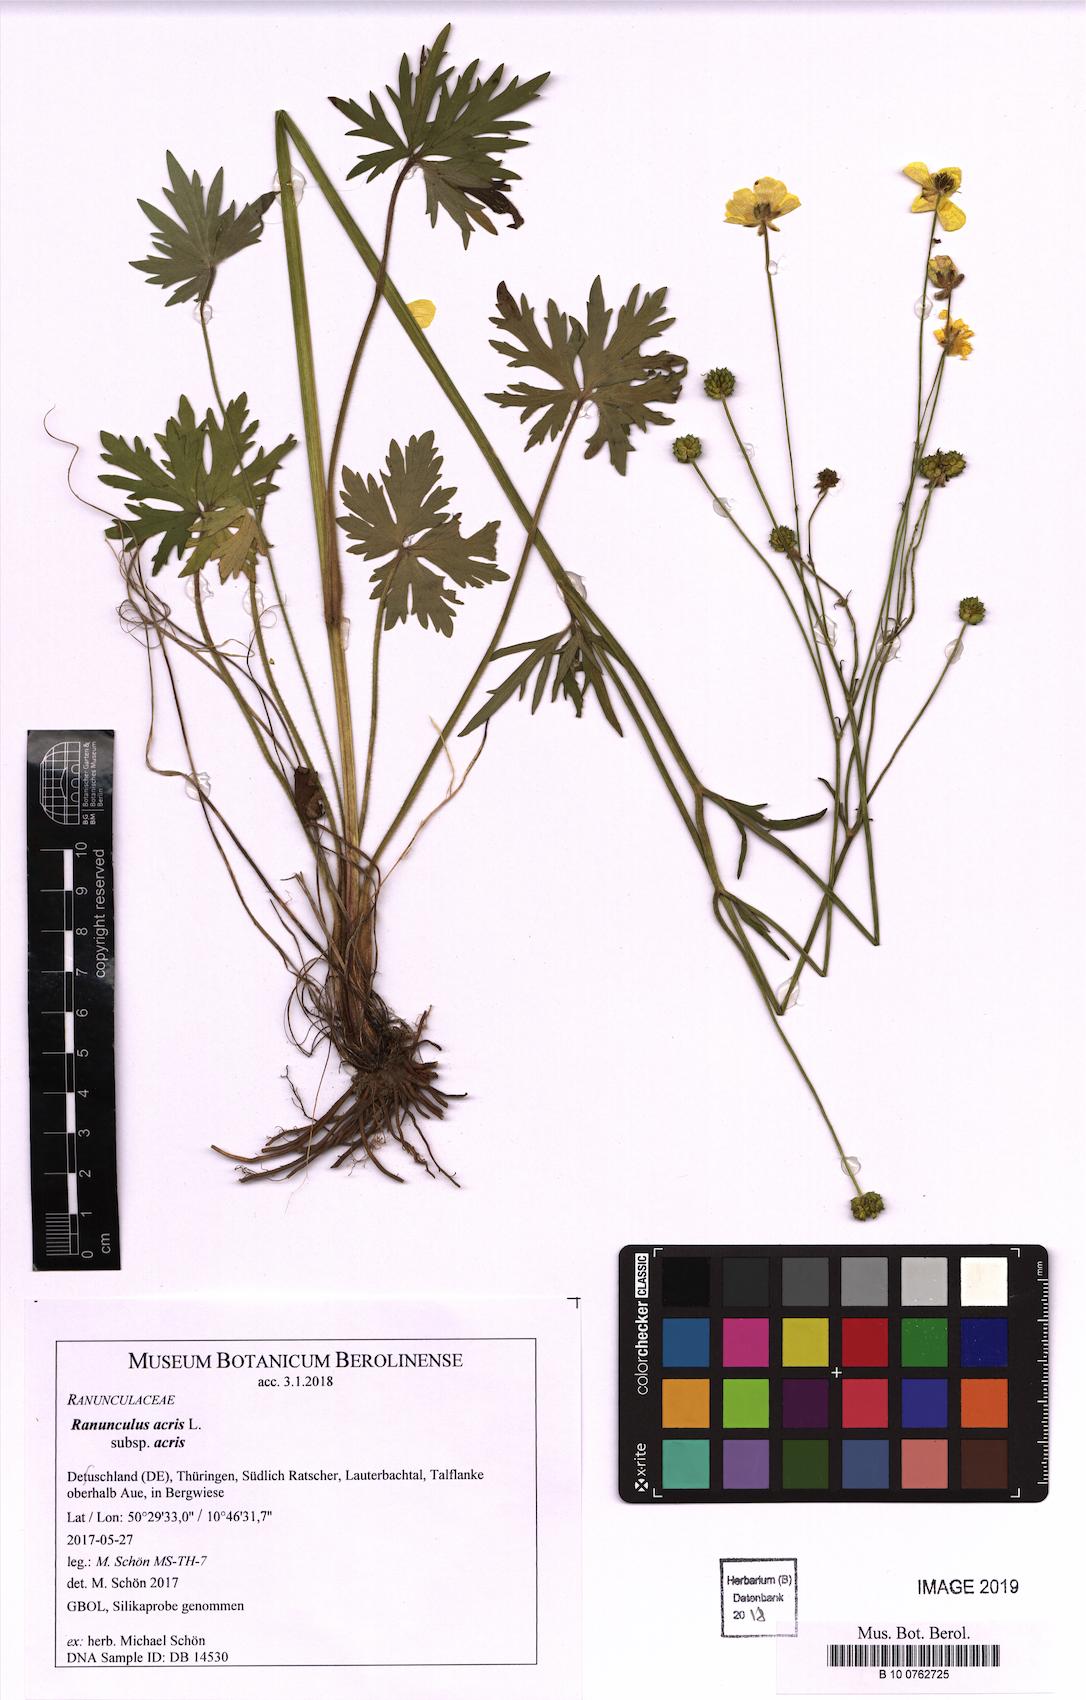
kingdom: Plantae
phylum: Tracheophyta
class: Magnoliopsida
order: Ranunculales
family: Ranunculaceae
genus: Ranunculus
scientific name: Ranunculus acris
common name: Meadow buttercup
